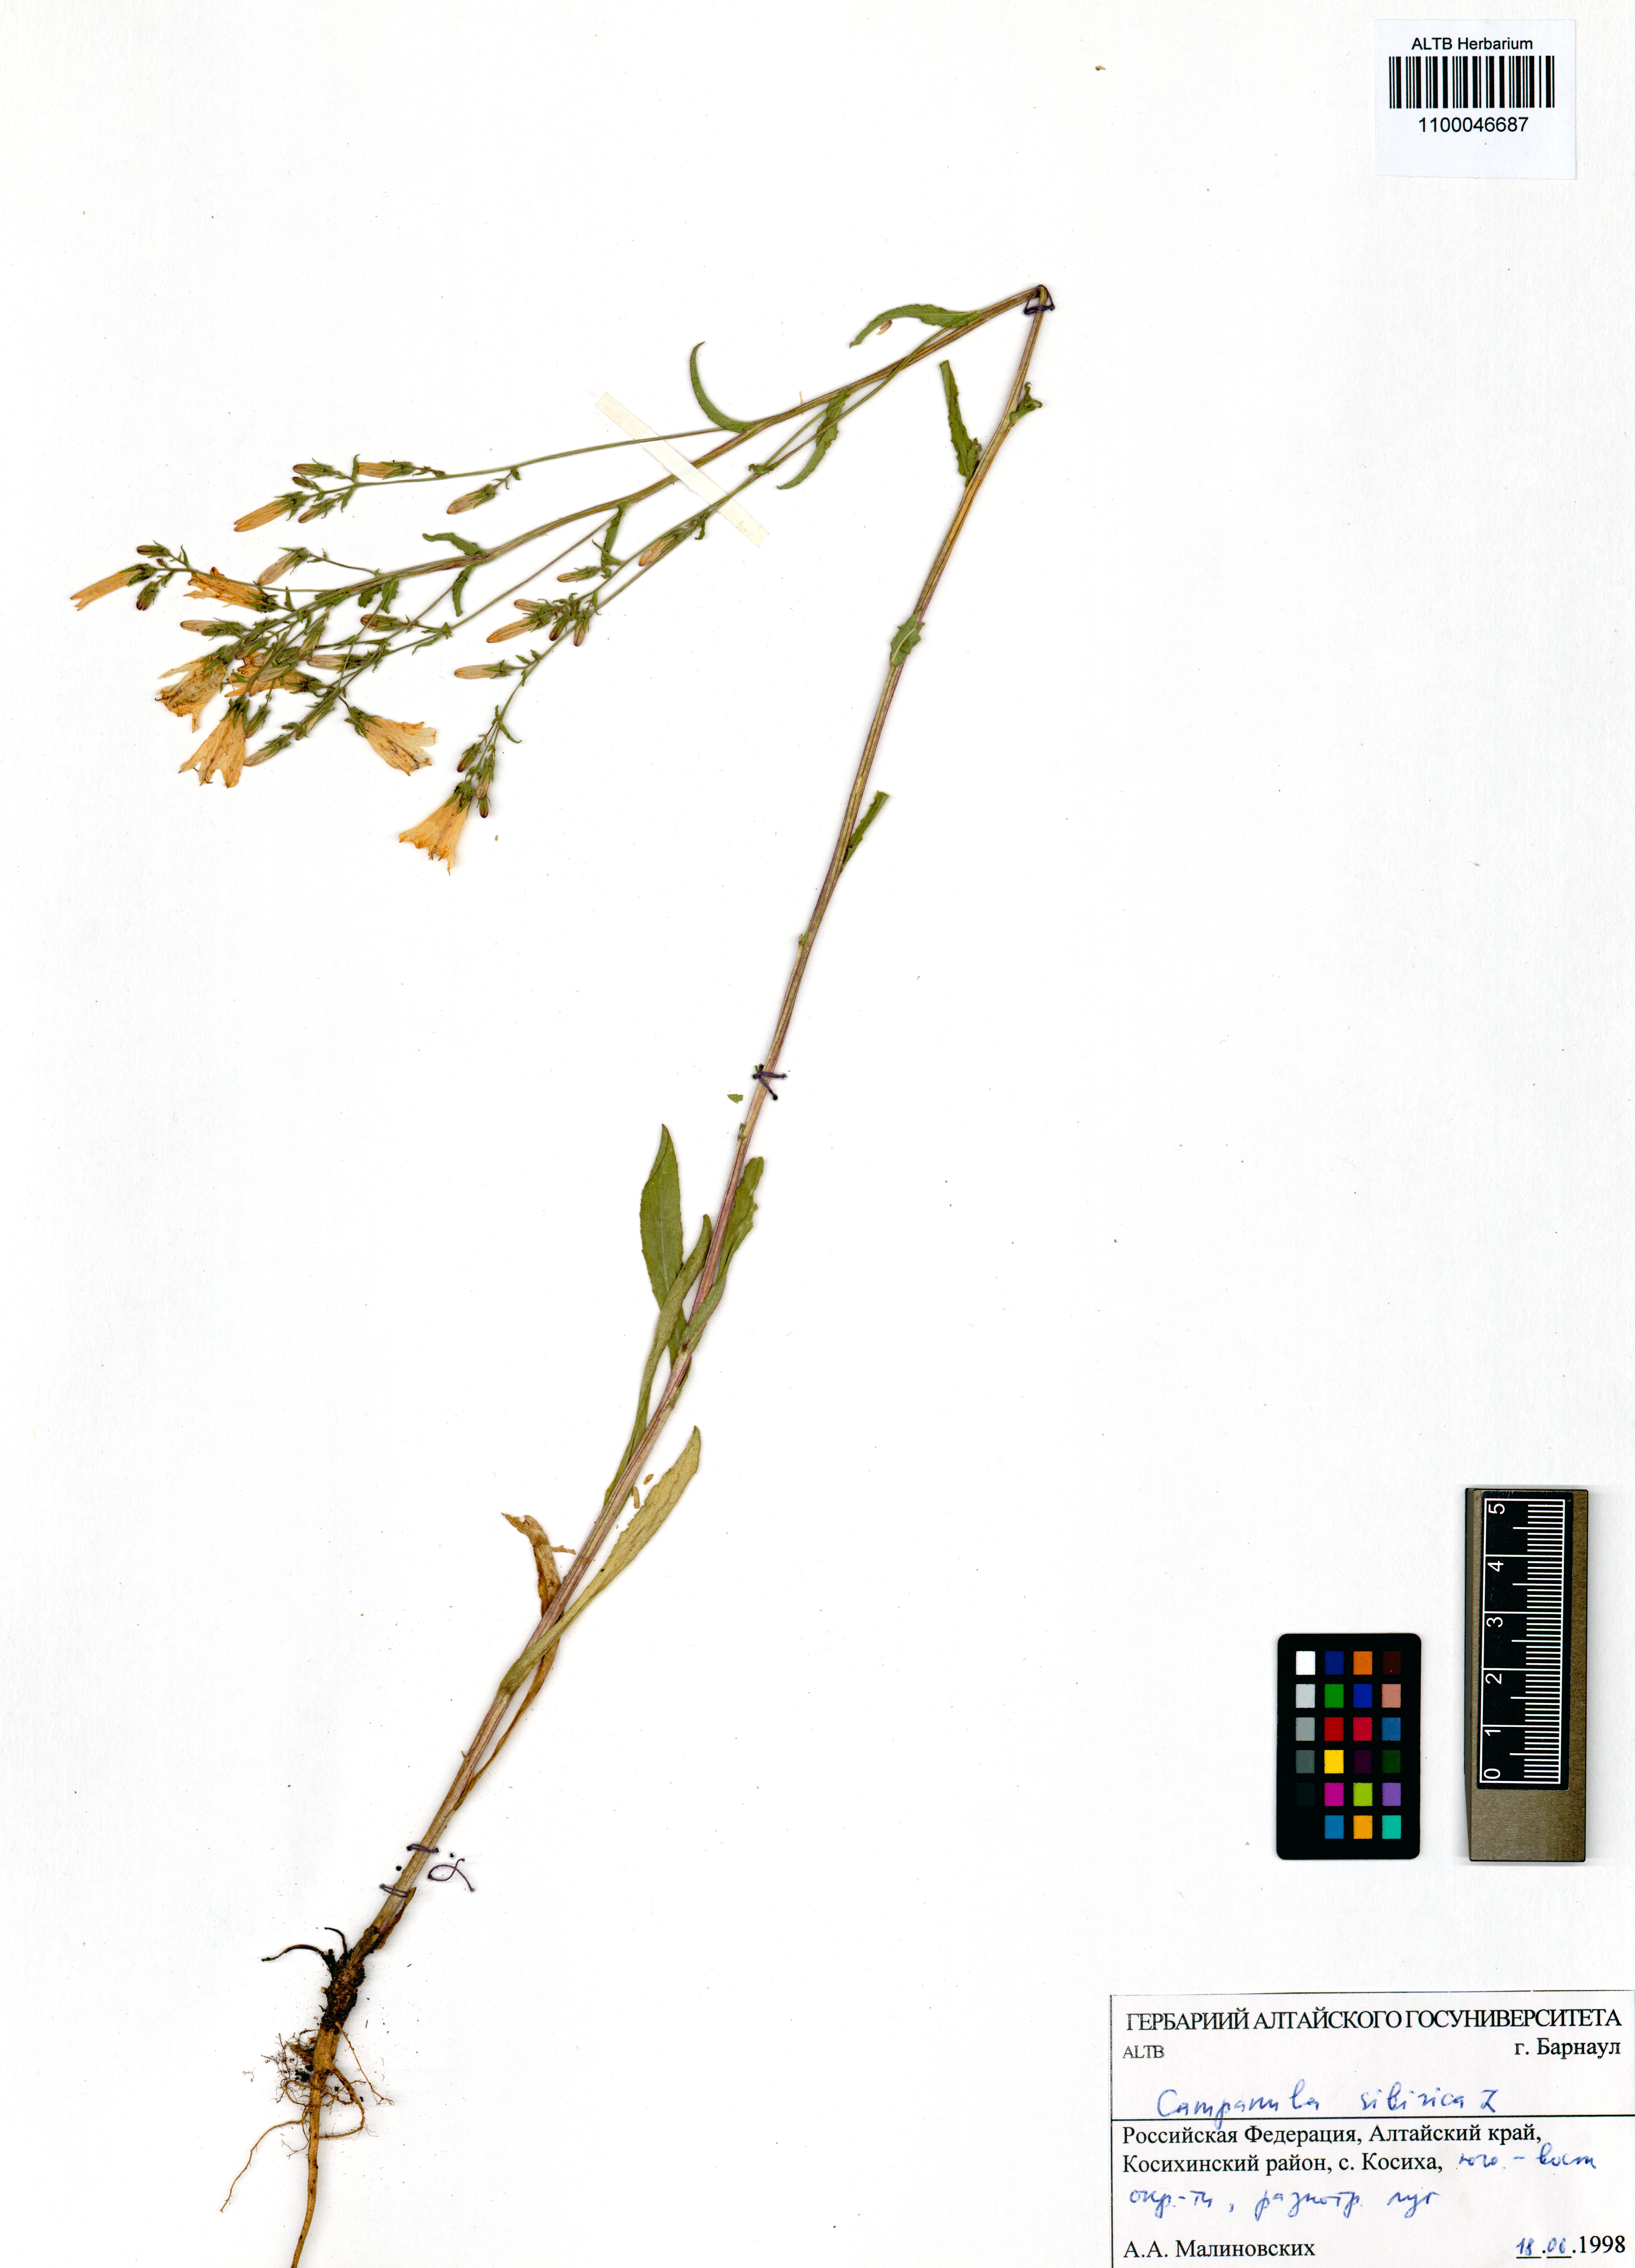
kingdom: Plantae
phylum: Tracheophyta
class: Magnoliopsida
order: Asterales
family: Campanulaceae
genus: Campanula
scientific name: Campanula sibirica
